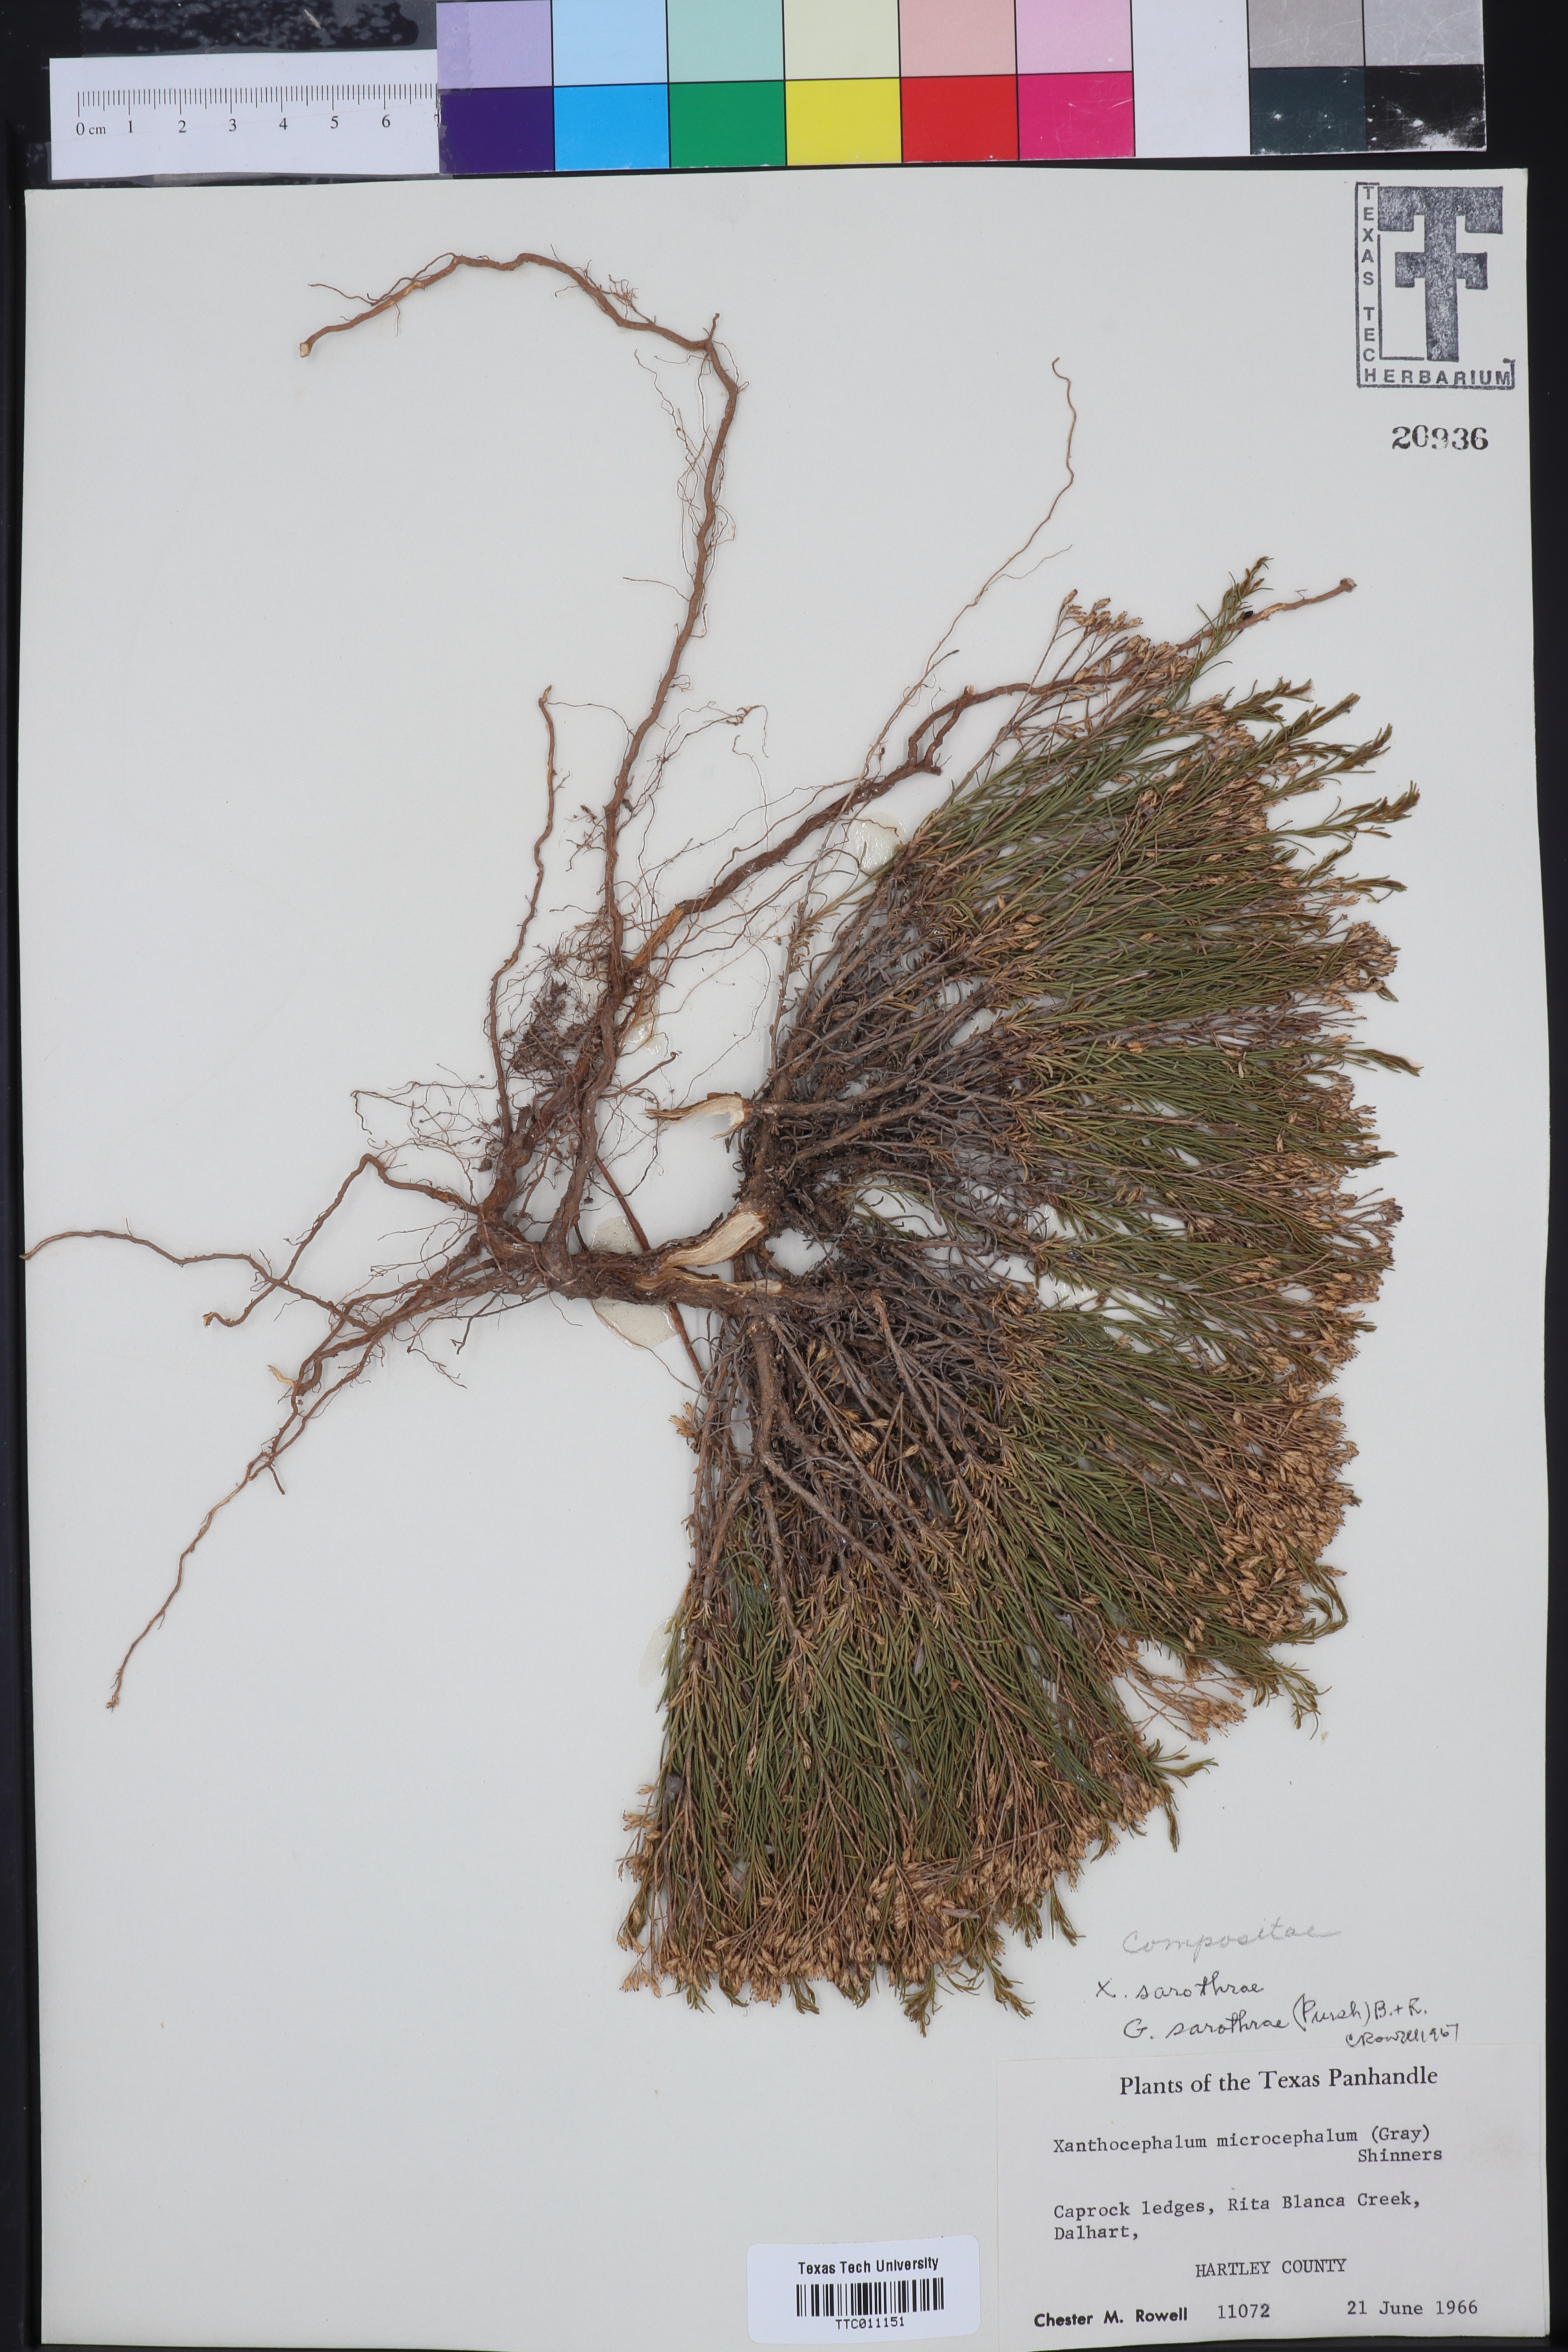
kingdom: Plantae
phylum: Tracheophyta
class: Magnoliopsida
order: Asterales
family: Asteraceae
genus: Gutierrezia
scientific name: Gutierrezia sarothrae
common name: Broom snakeweed
